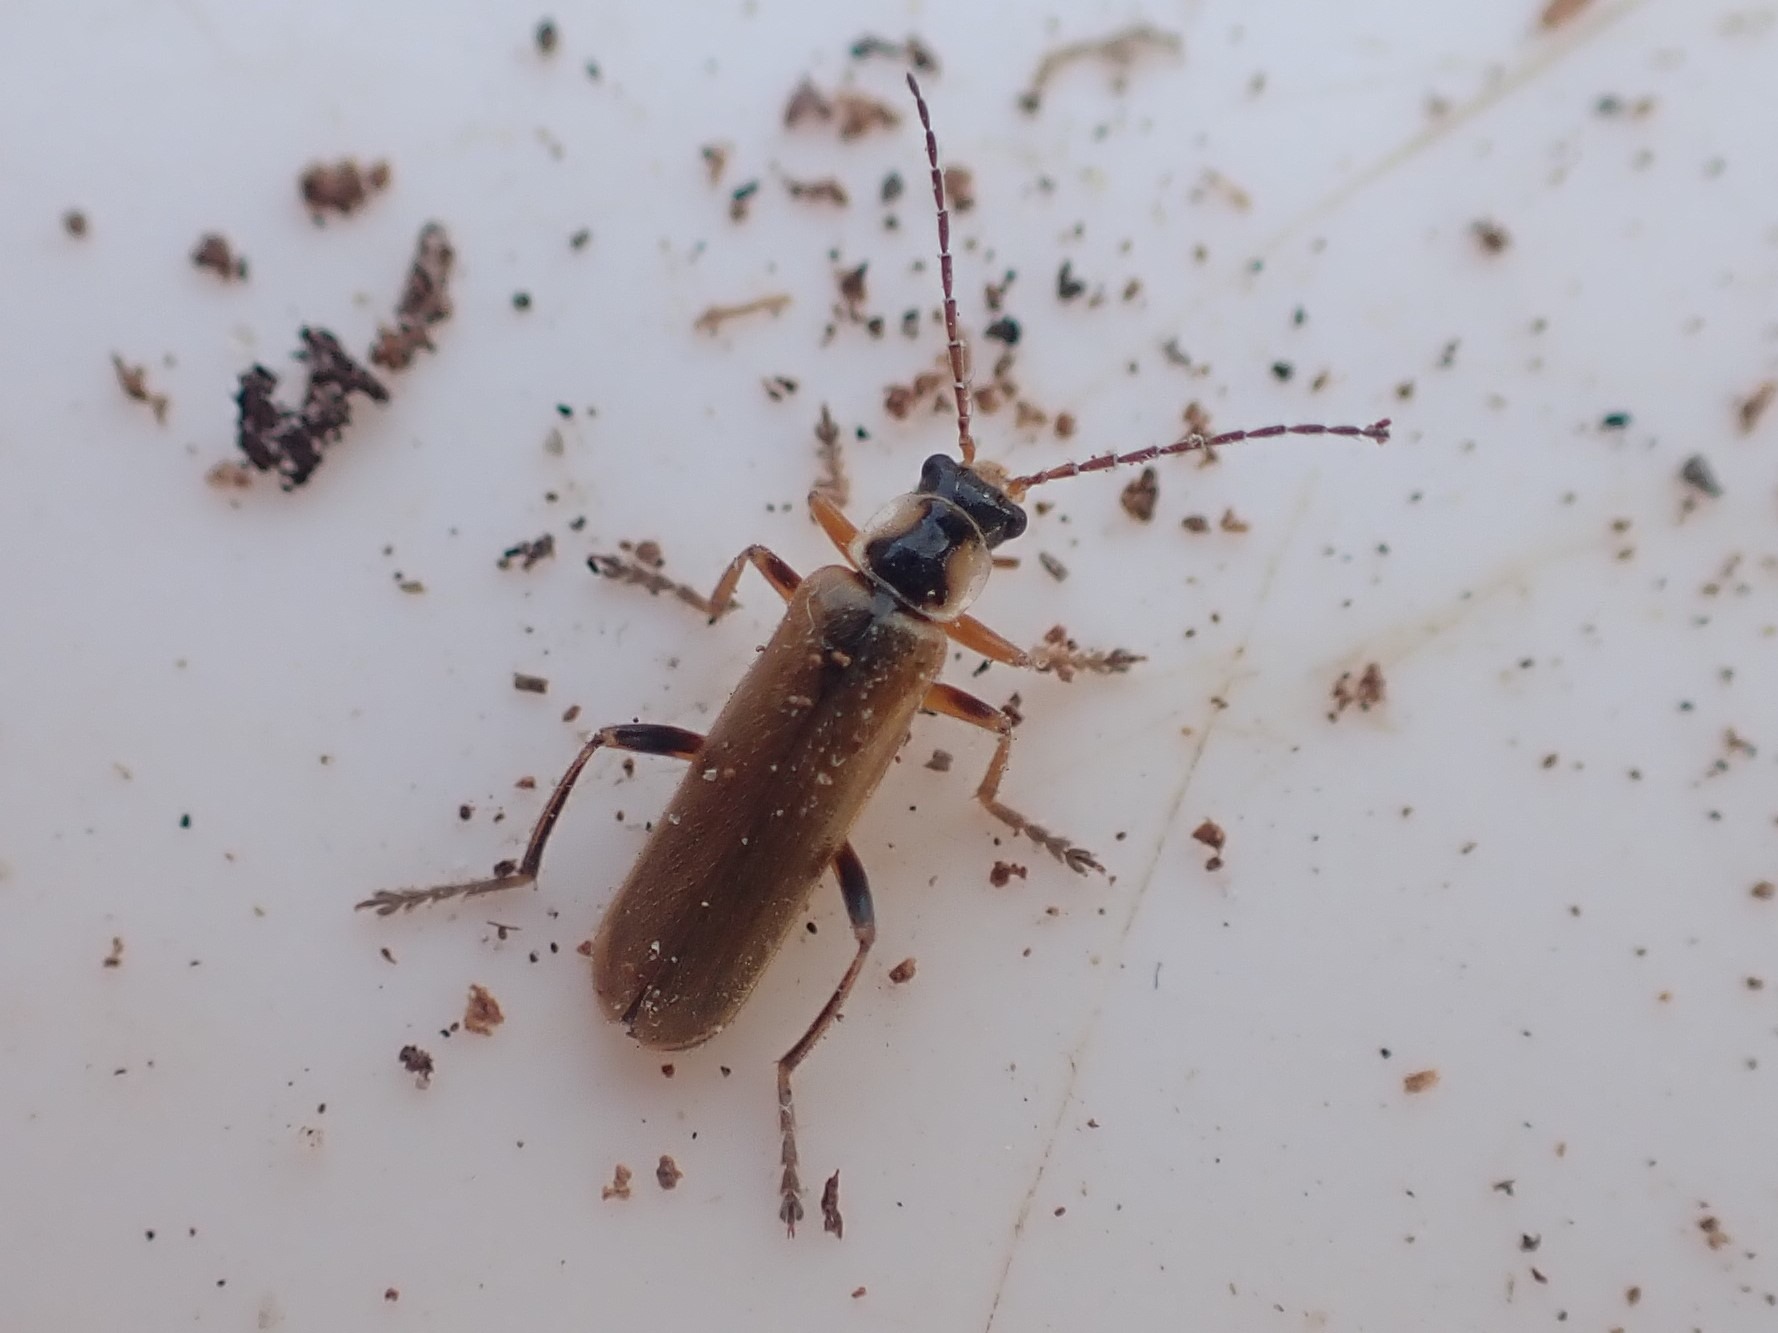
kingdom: Animalia
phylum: Arthropoda
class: Insecta
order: Coleoptera
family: Cantharidae
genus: Cantharis
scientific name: Cantharis decipiens
